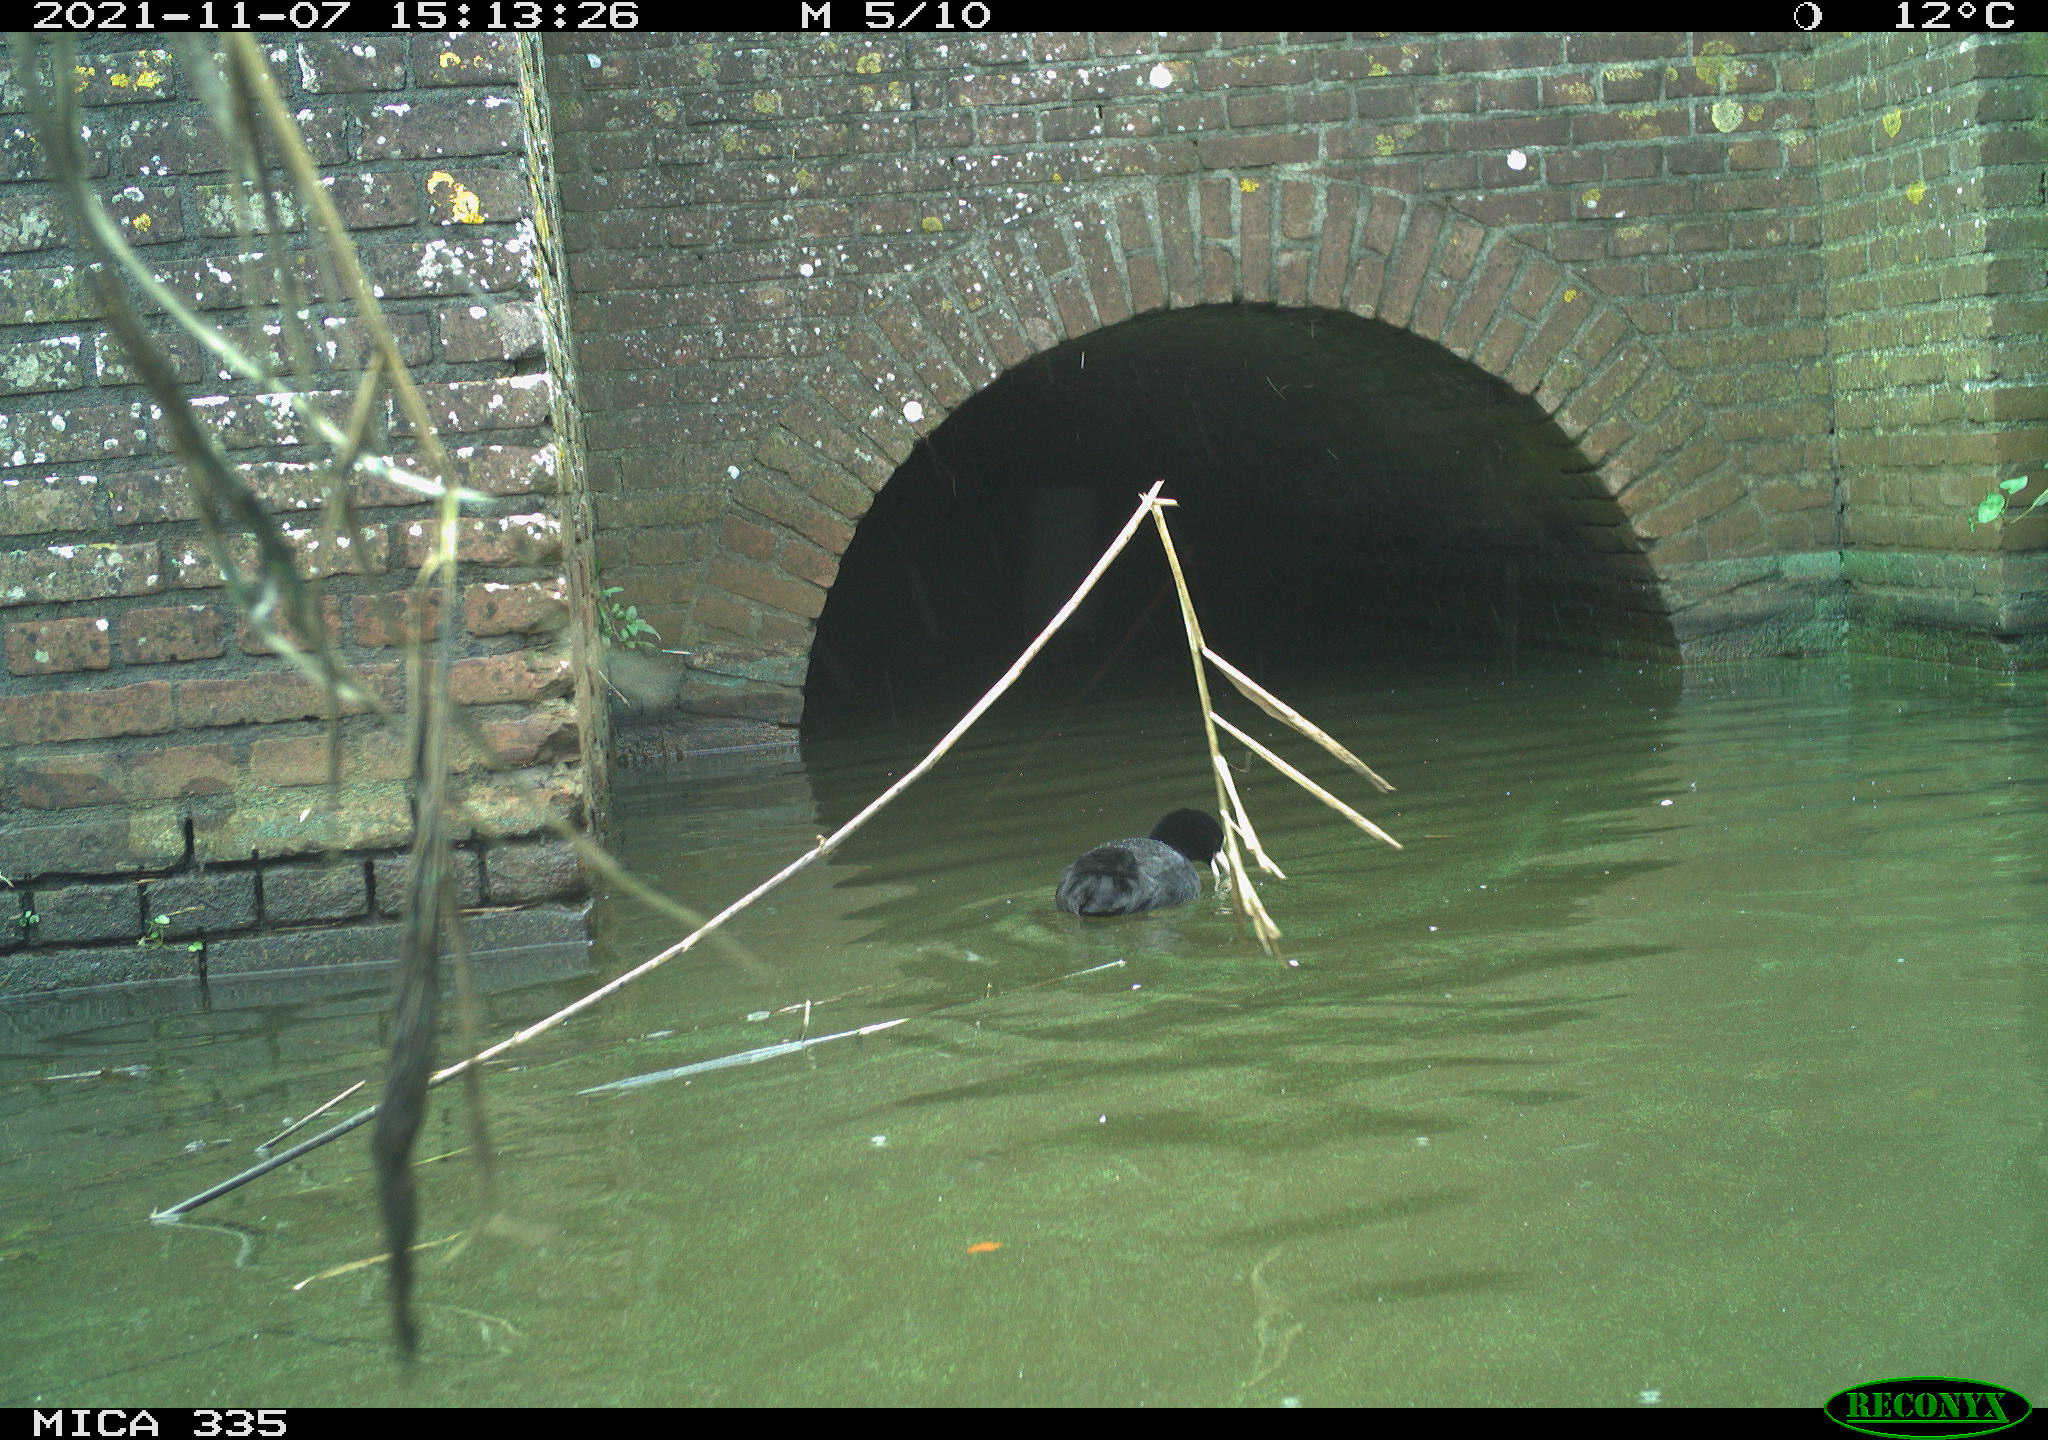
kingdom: Animalia
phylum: Chordata
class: Aves
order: Gruiformes
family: Rallidae
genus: Fulica
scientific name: Fulica atra
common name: Eurasian coot
